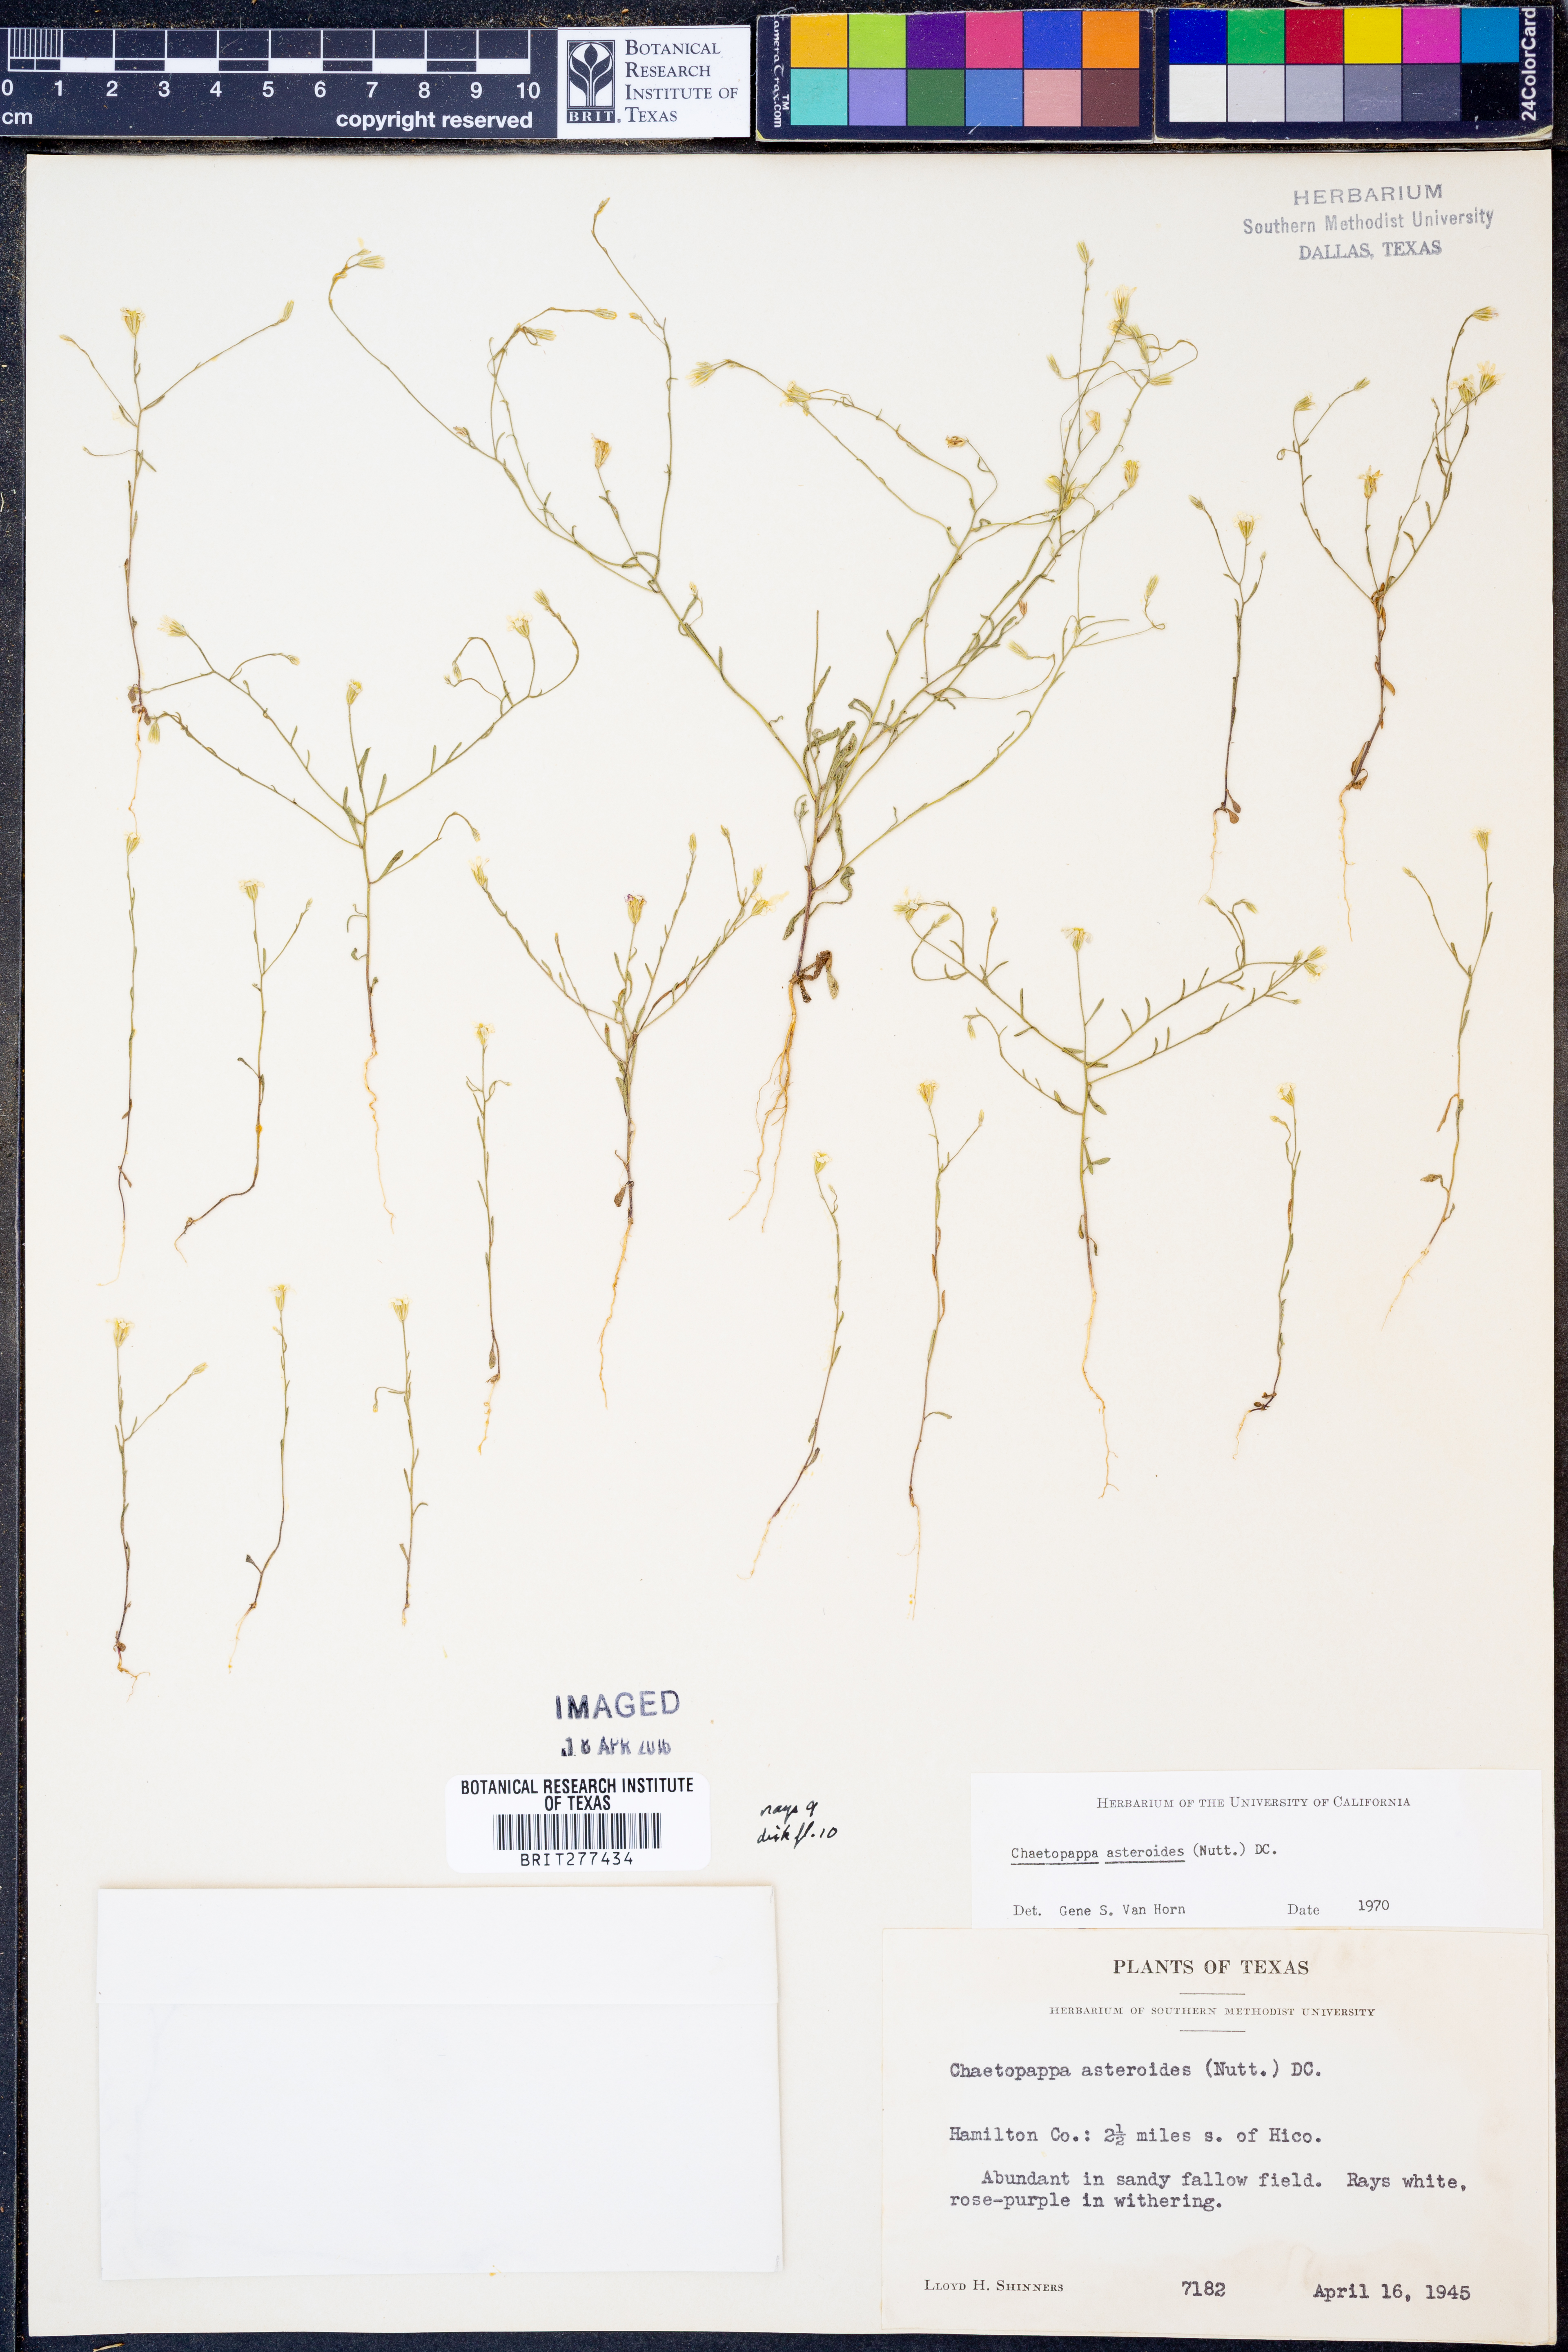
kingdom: Plantae
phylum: Tracheophyta
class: Magnoliopsida
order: Asterales
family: Asteraceae
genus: Chaetopappa
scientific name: Chaetopappa asteroides
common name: Tiny lazy daisy
